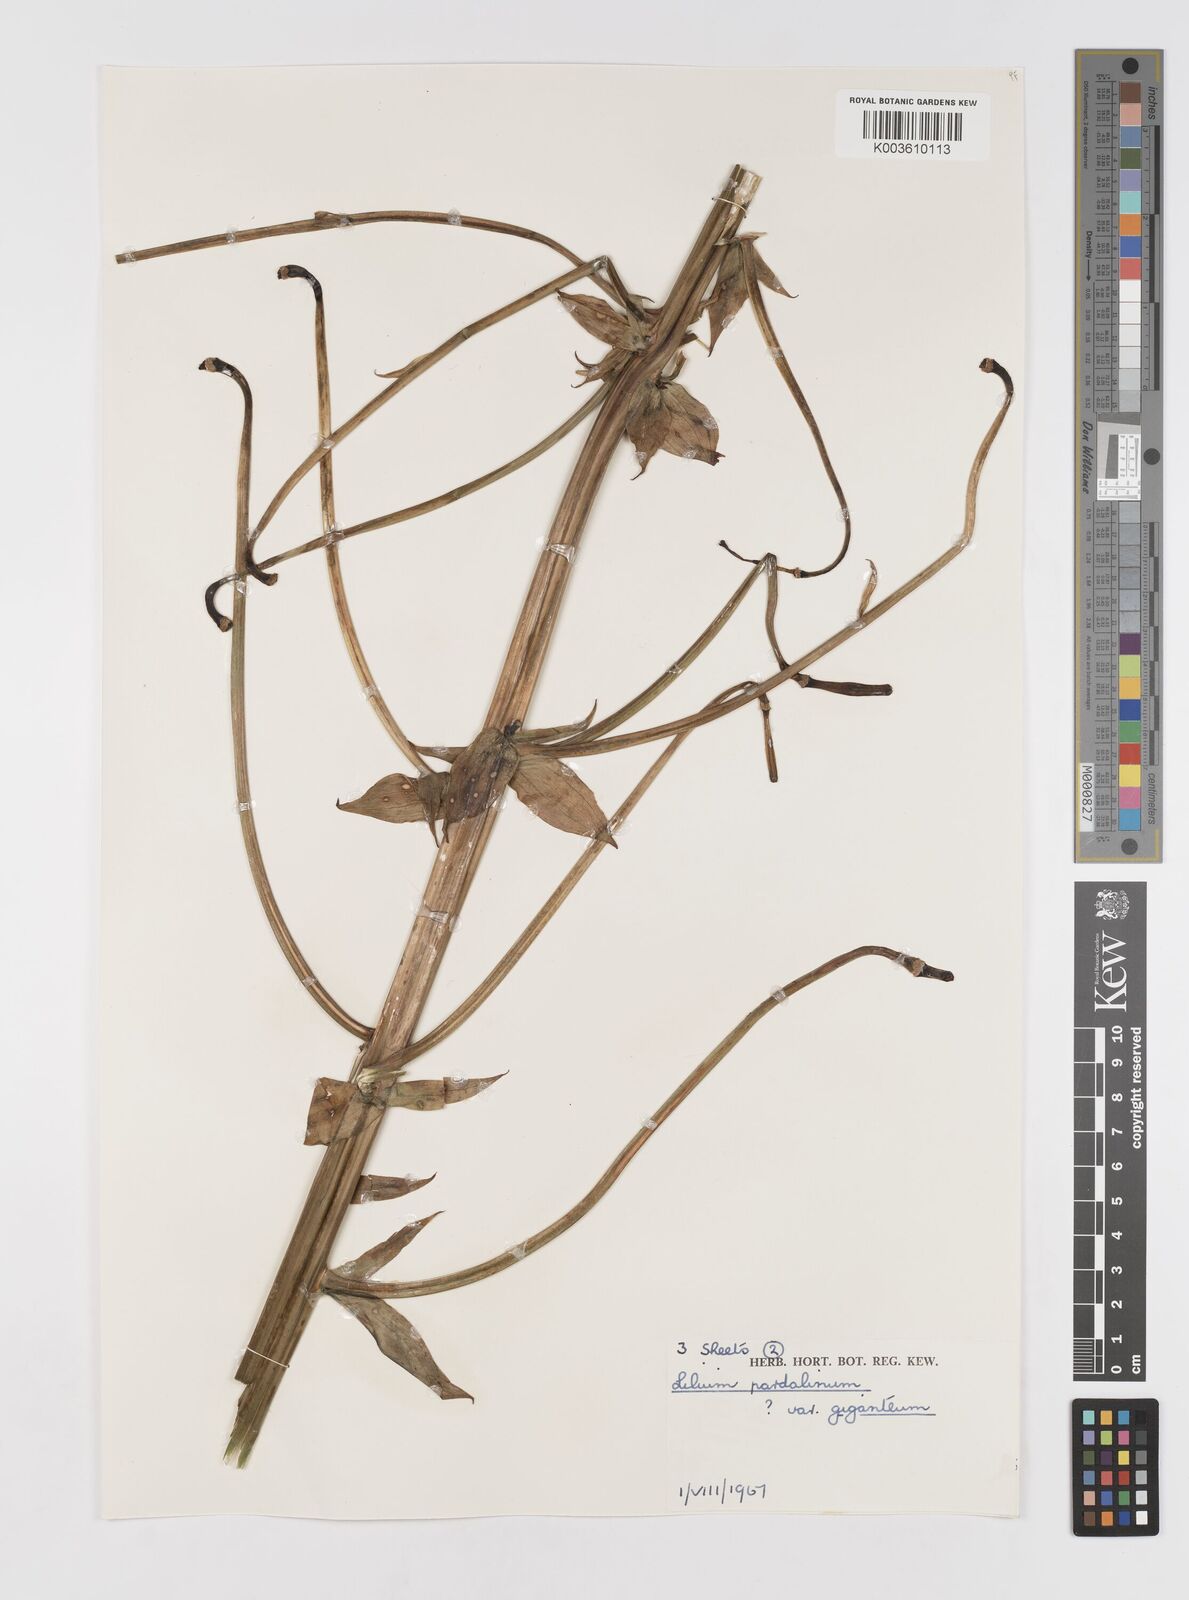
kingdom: Plantae
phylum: Tracheophyta
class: Liliopsida
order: Liliales
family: Liliaceae
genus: Lilium
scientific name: Lilium pardalinum
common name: Panther lily
